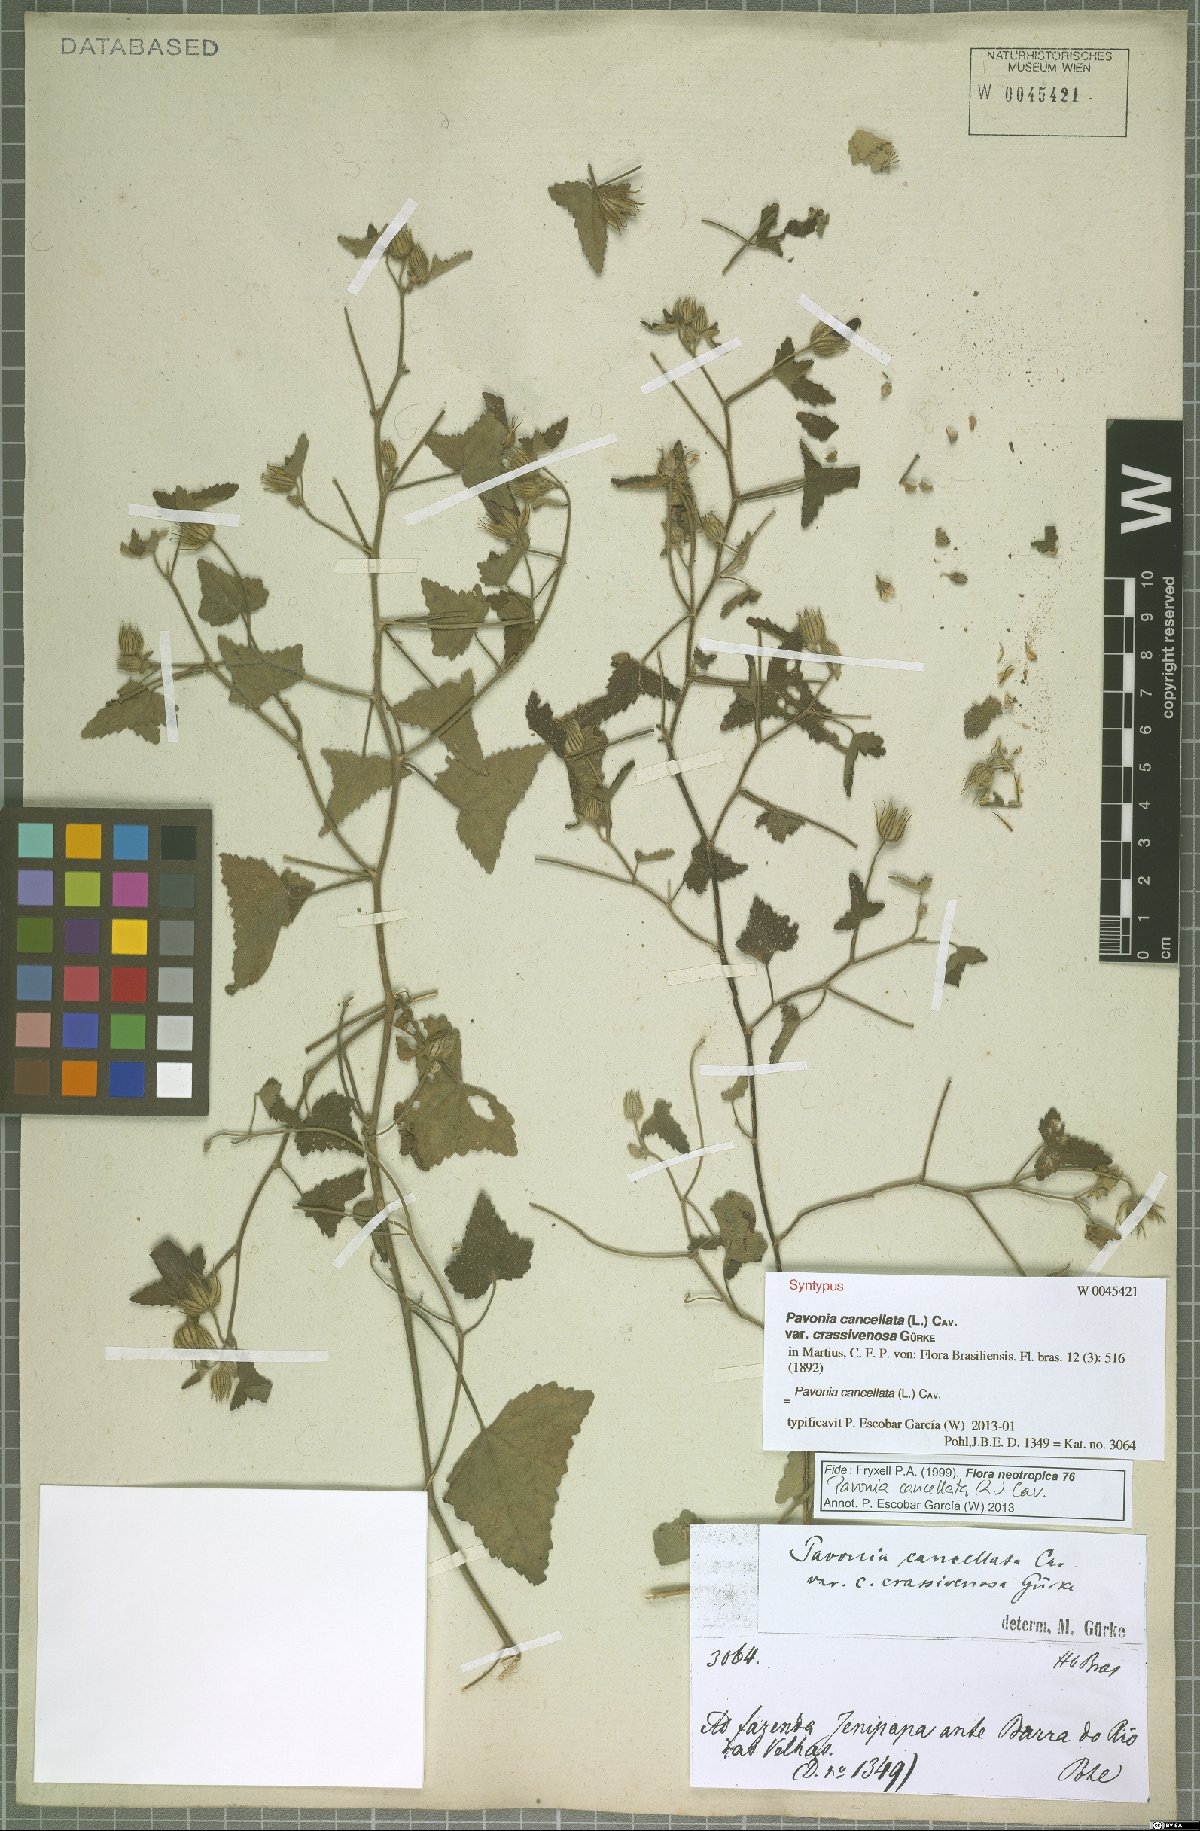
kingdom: Plantae
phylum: Tracheophyta
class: Magnoliopsida
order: Malvales
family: Malvaceae
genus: Pavonia
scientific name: Pavonia cancellata
